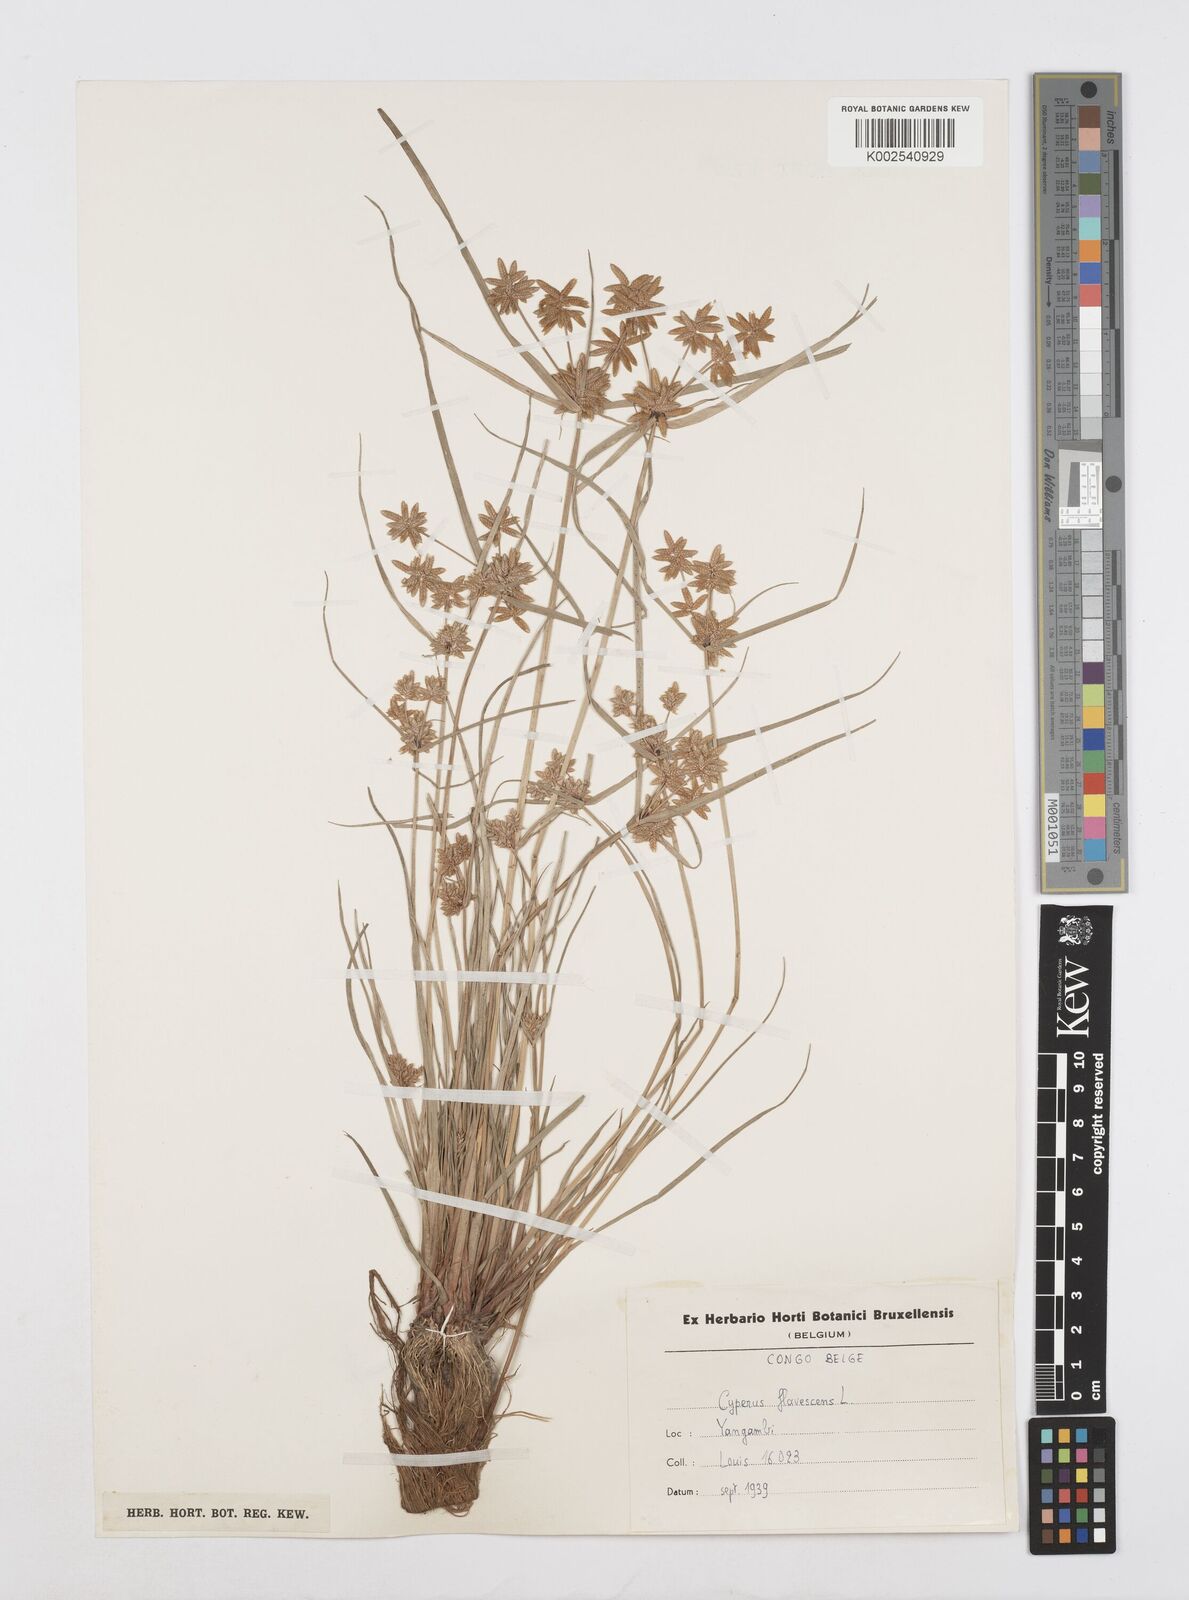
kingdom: Plantae
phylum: Tracheophyta
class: Liliopsida
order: Poales
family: Cyperaceae
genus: Cyperus
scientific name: Cyperus flavescens
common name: Yellow galingale
